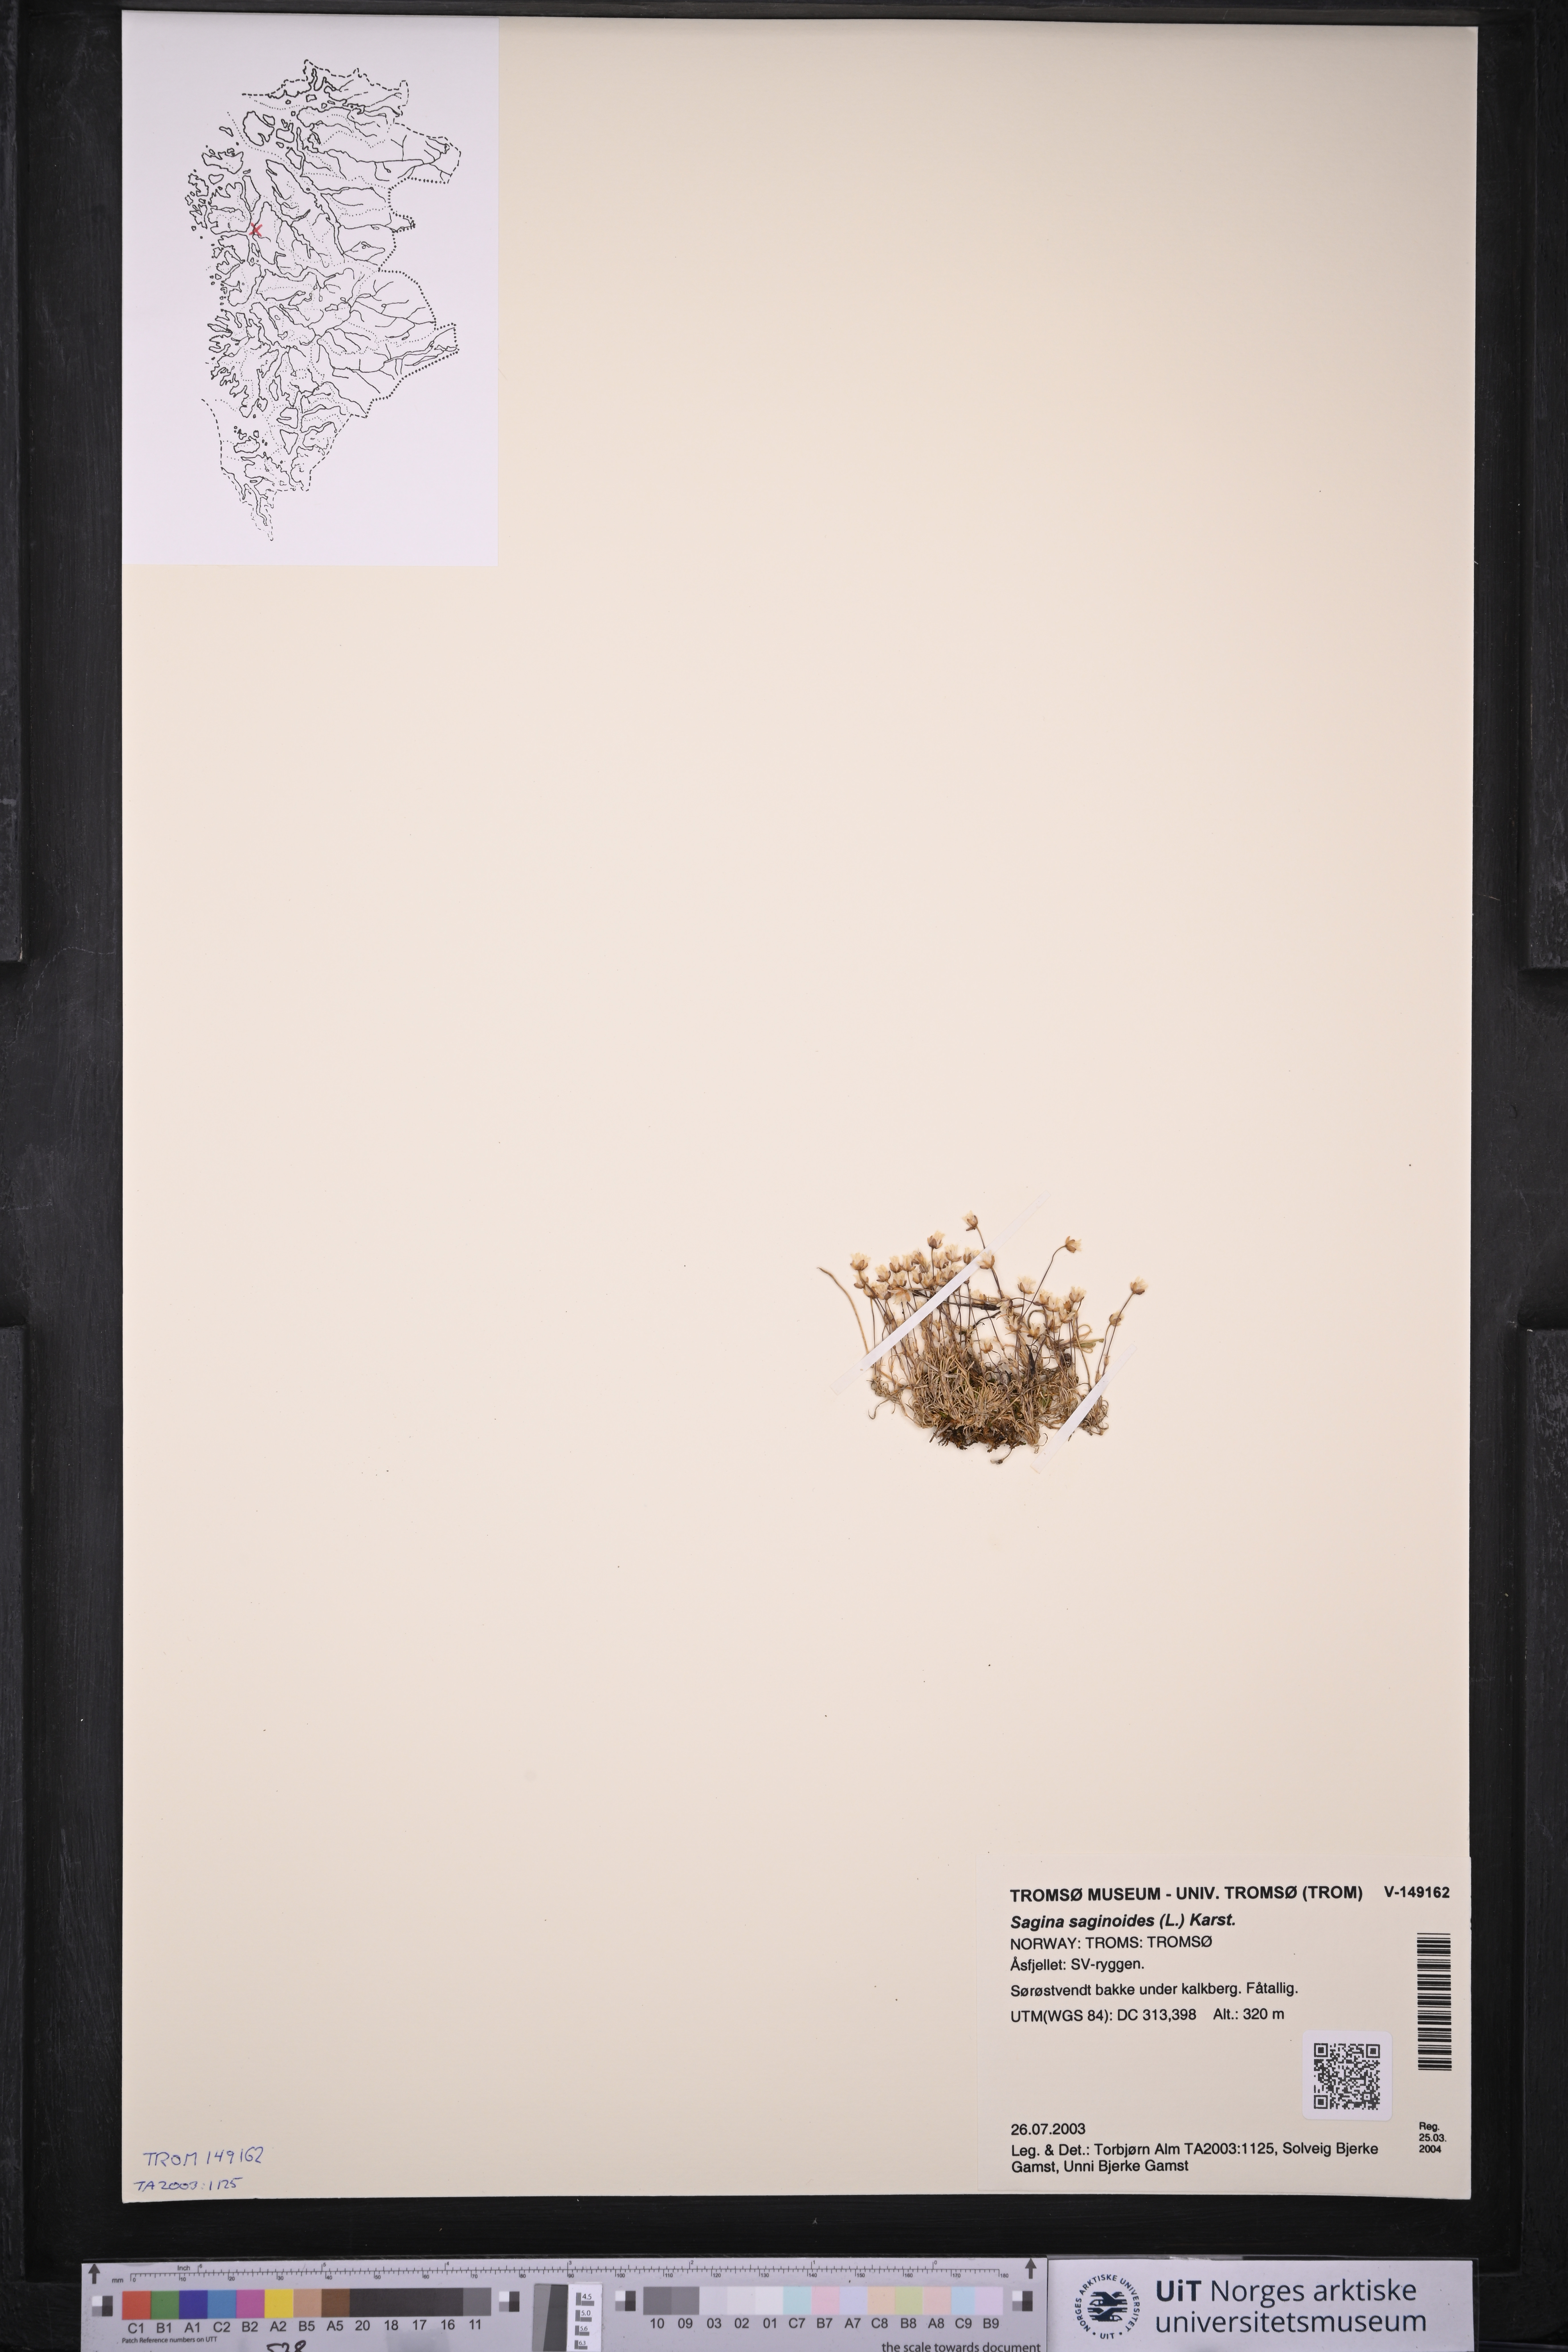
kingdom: Plantae
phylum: Tracheophyta
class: Magnoliopsida
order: Caryophyllales
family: Caryophyllaceae
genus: Sagina
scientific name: Sagina saginoides
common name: Alpine pearlwort
